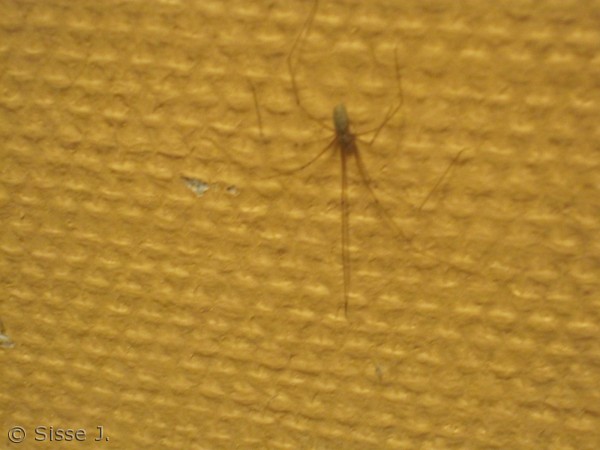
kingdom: Animalia
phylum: Arthropoda
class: Arachnida
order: Araneae
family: Pholcidae
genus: Pholcus
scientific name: Pholcus phalangioides
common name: Mejeredderkop
